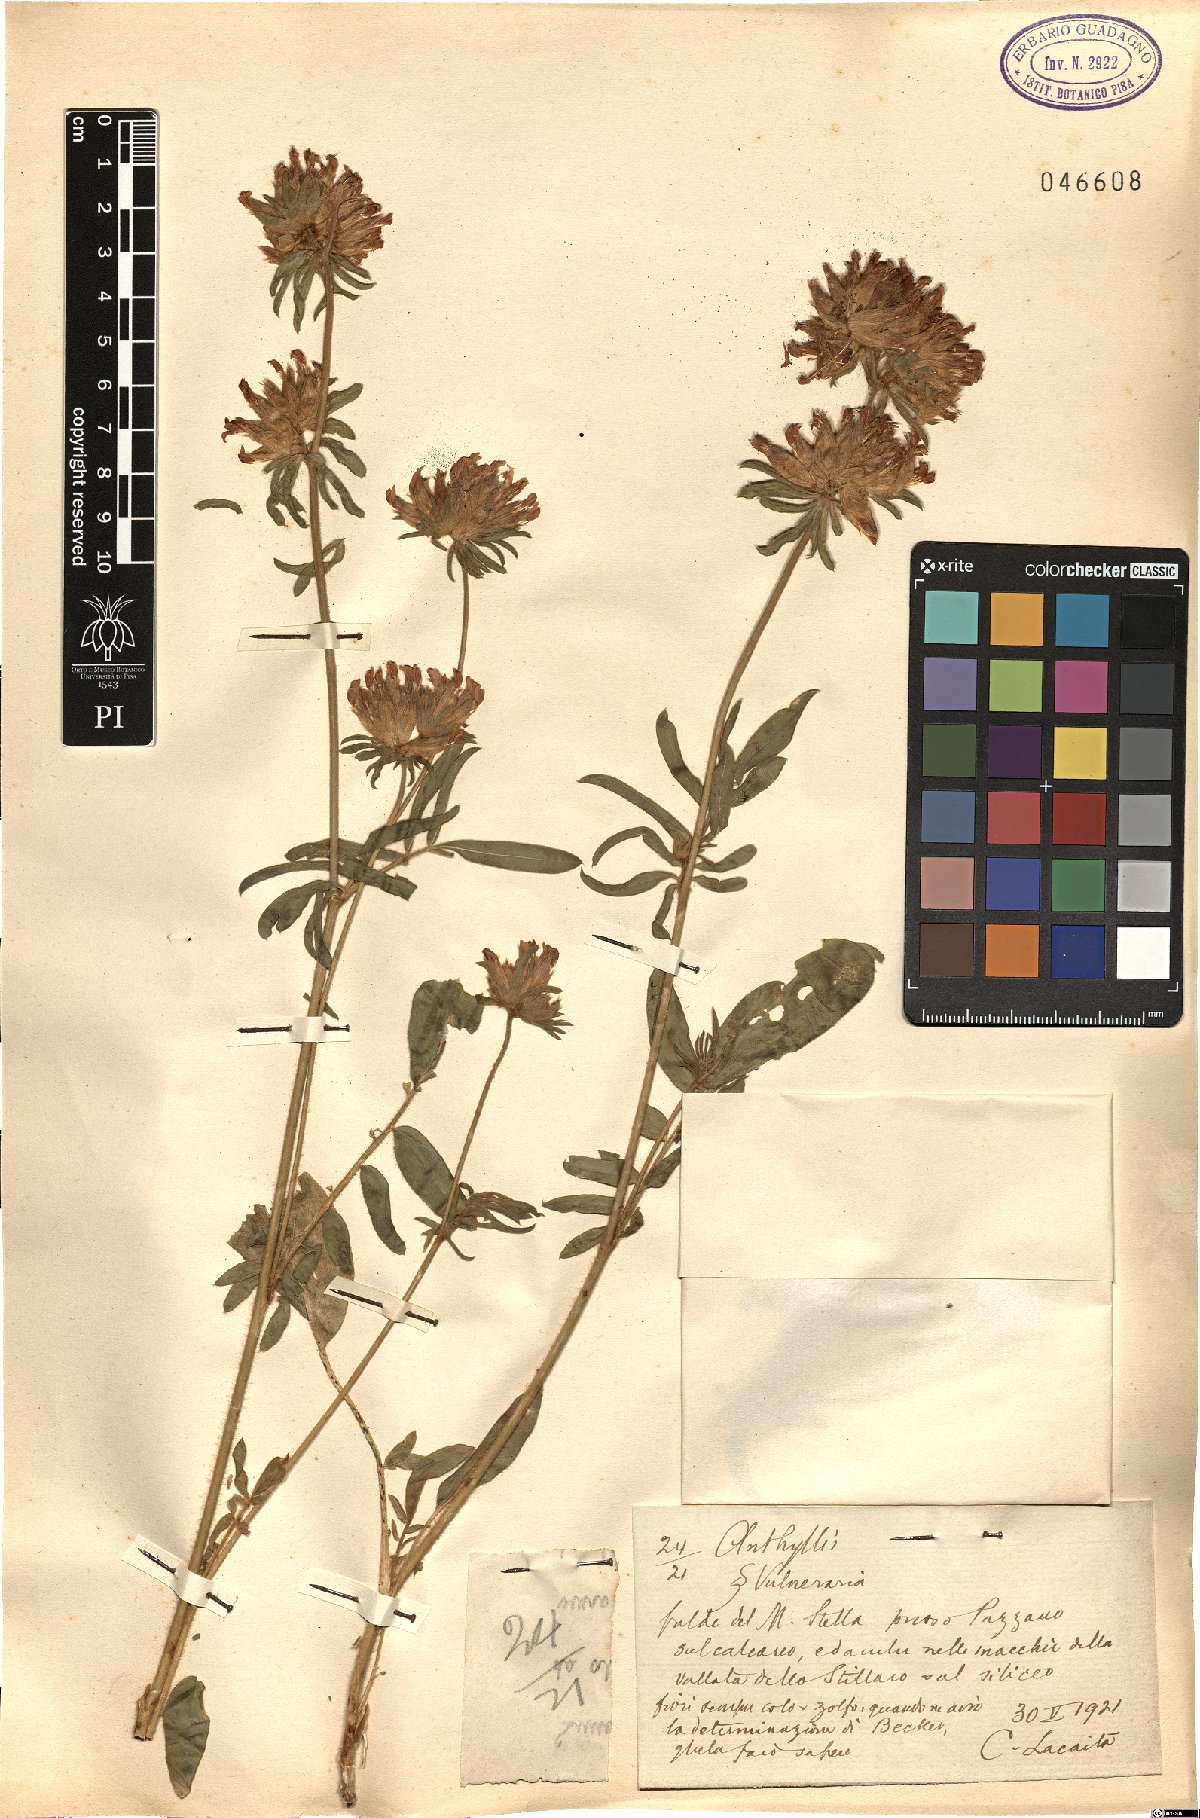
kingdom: Plantae
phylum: Tracheophyta
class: Magnoliopsida
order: Fabales
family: Fabaceae
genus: Anthyllis
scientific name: Anthyllis vulneraria
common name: Kidney vetch
